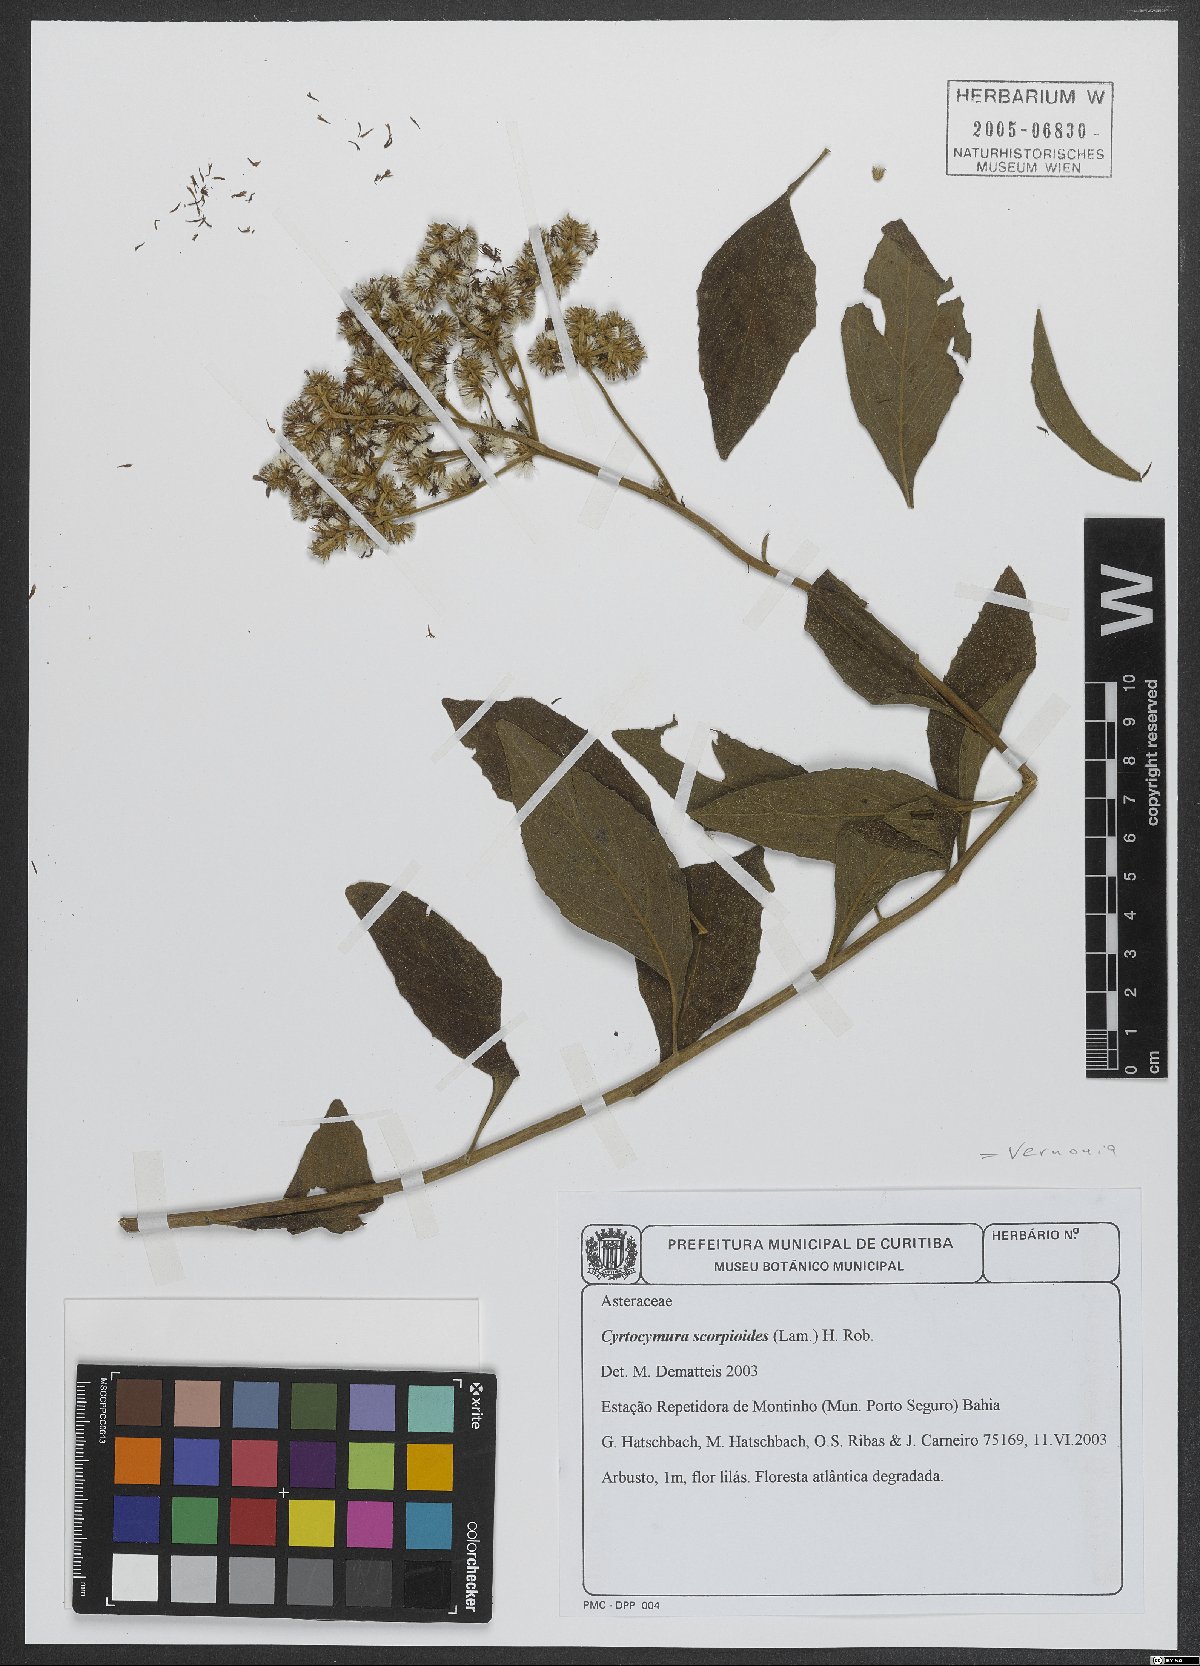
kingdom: Plantae
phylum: Tracheophyta
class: Magnoliopsida
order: Asterales
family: Asteraceae
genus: Cyrtocymura
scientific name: Cyrtocymura scorpioides
